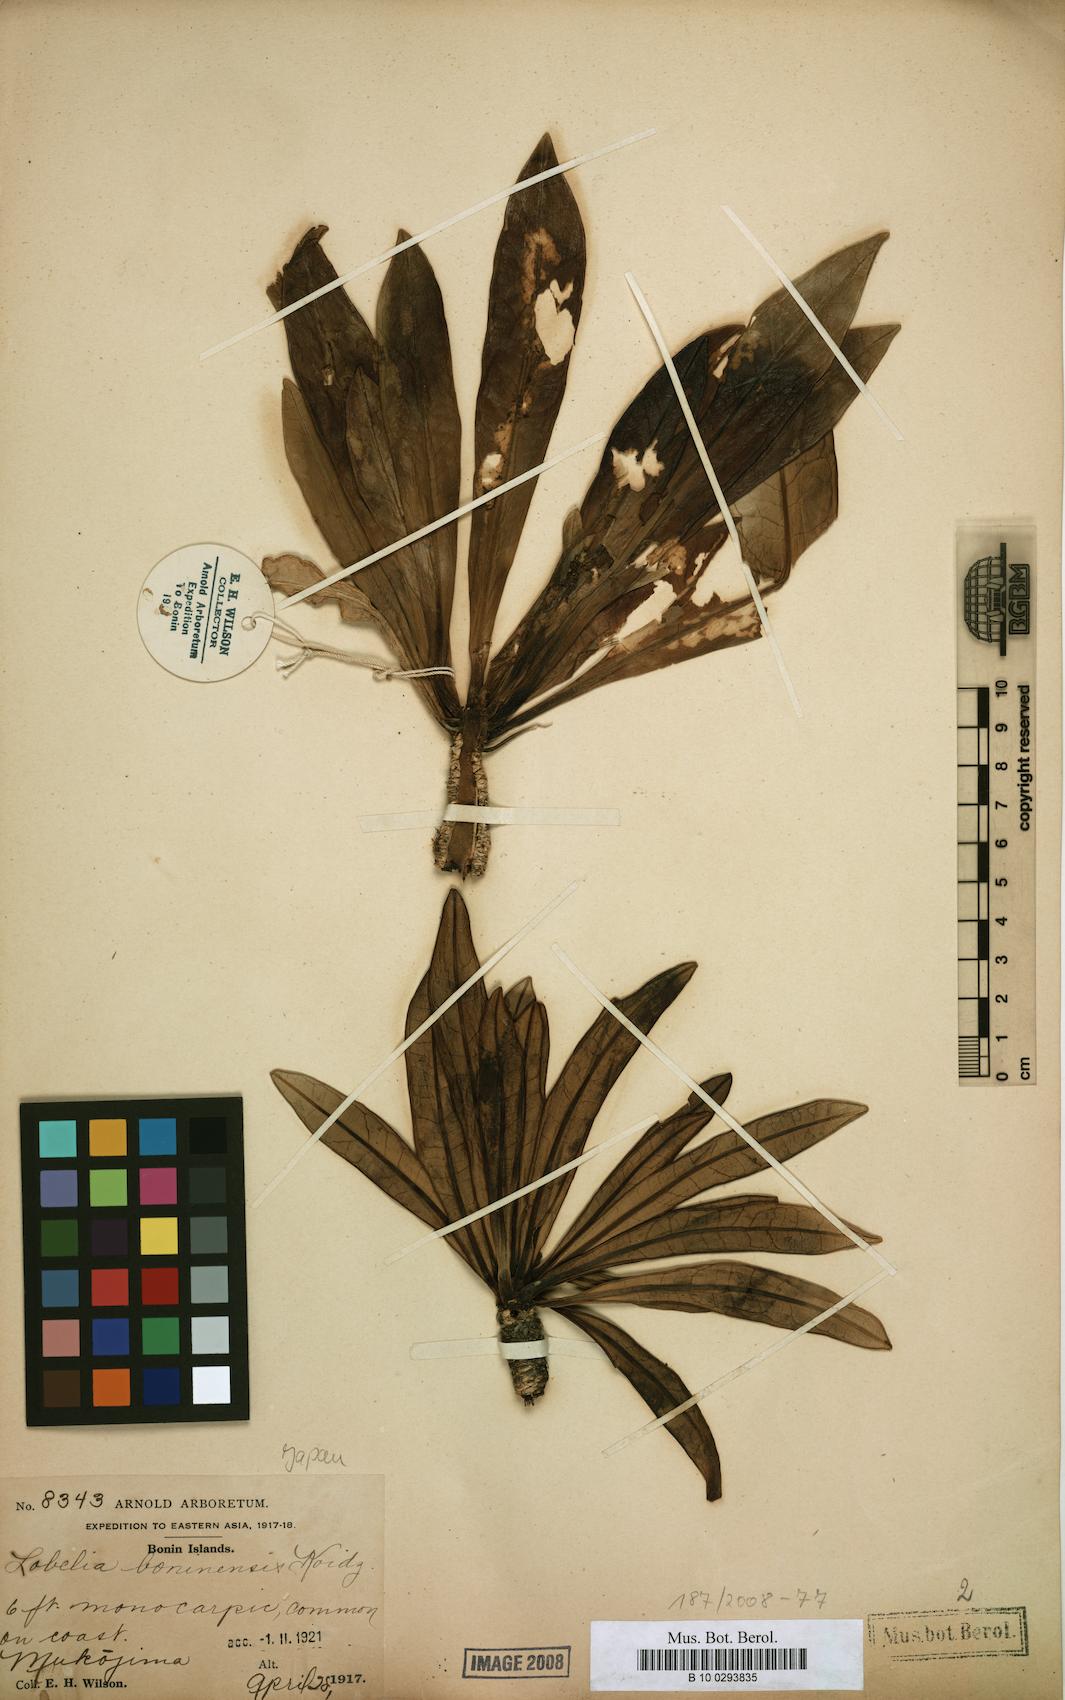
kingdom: Plantae
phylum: Tracheophyta
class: Magnoliopsida
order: Asterales
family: Campanulaceae
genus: Lobelia
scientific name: Lobelia boninensis
